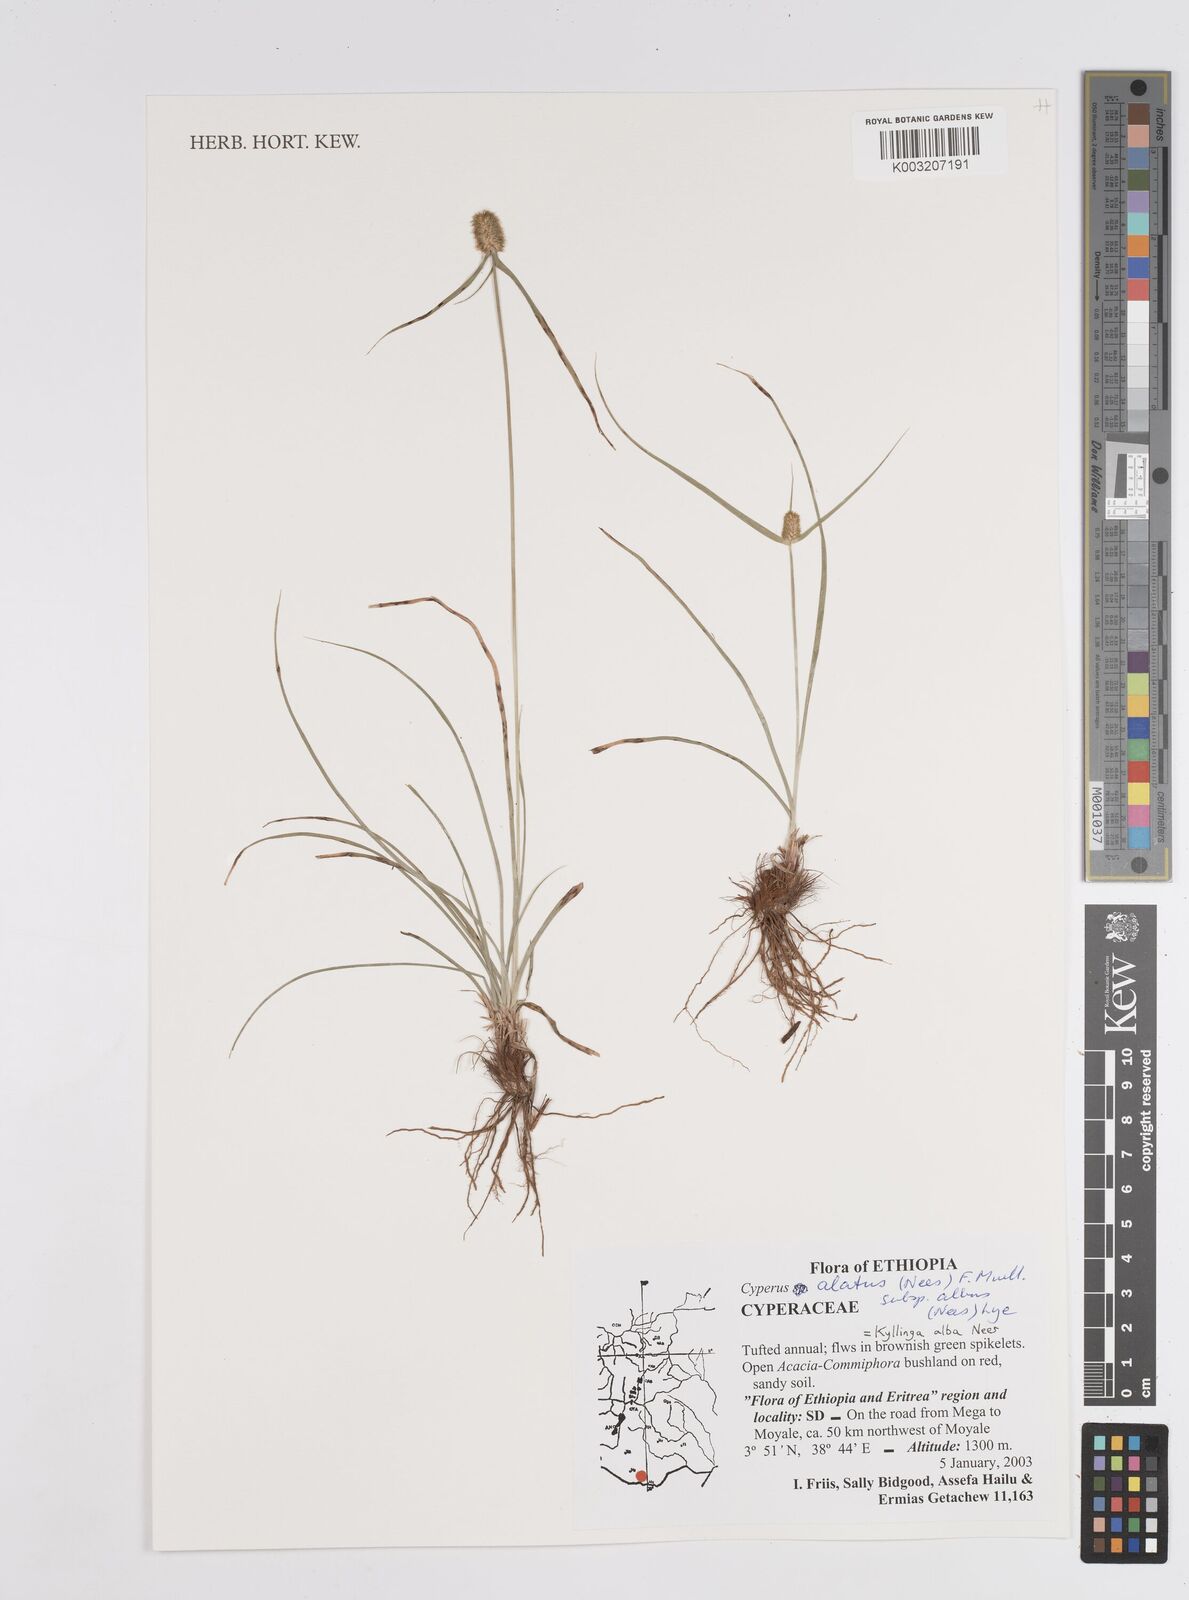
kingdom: Plantae
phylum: Tracheophyta
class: Liliopsida
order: Poales
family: Cyperaceae
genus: Cyperus
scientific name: Cyperus
